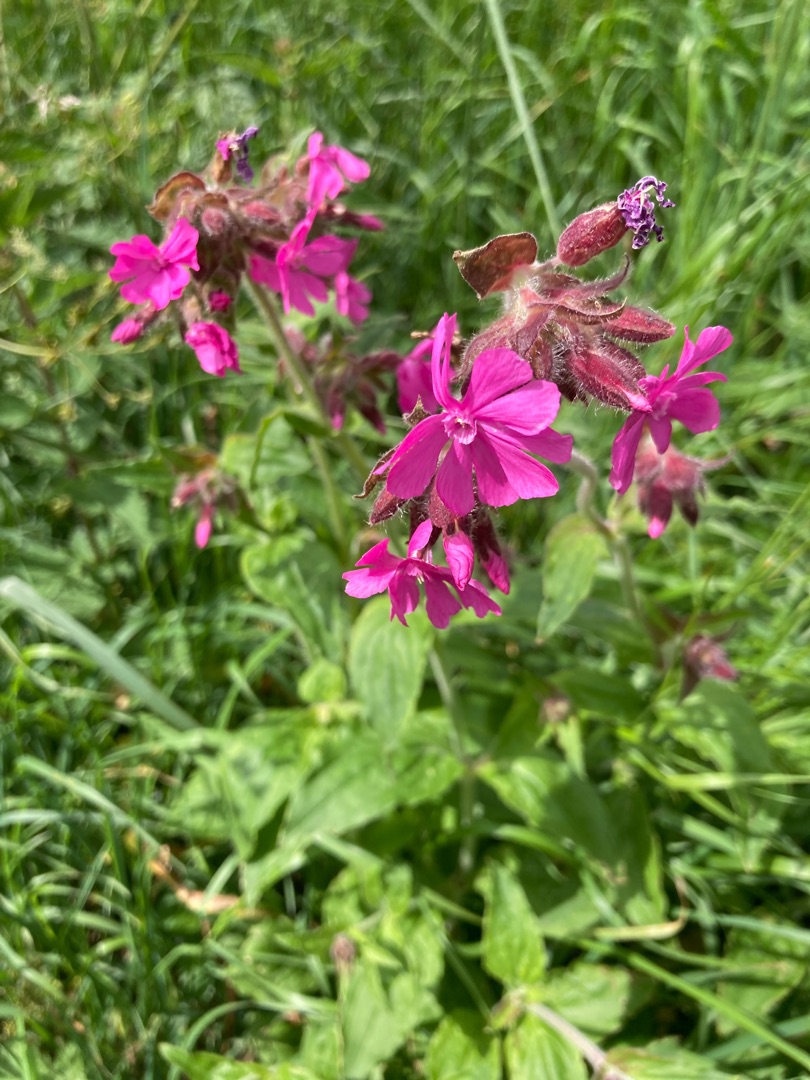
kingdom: Plantae
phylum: Tracheophyta
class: Magnoliopsida
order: Caryophyllales
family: Caryophyllaceae
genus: Silene
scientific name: Silene dioica
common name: Dagpragtstjerne
